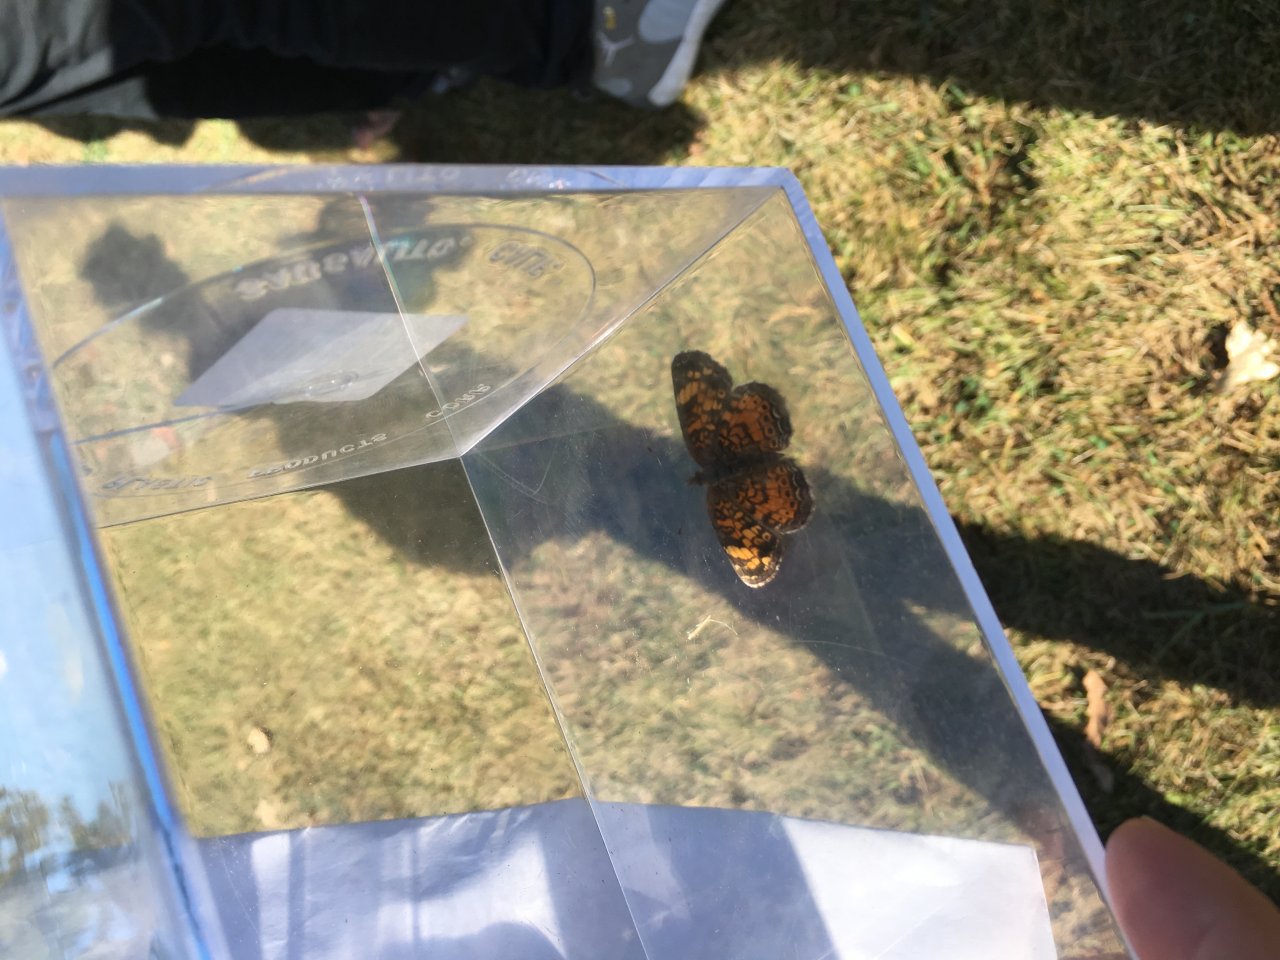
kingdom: Animalia
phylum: Arthropoda
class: Insecta
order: Lepidoptera
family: Nymphalidae
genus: Phyciodes
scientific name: Phyciodes tharos
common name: Pearl Crescent
